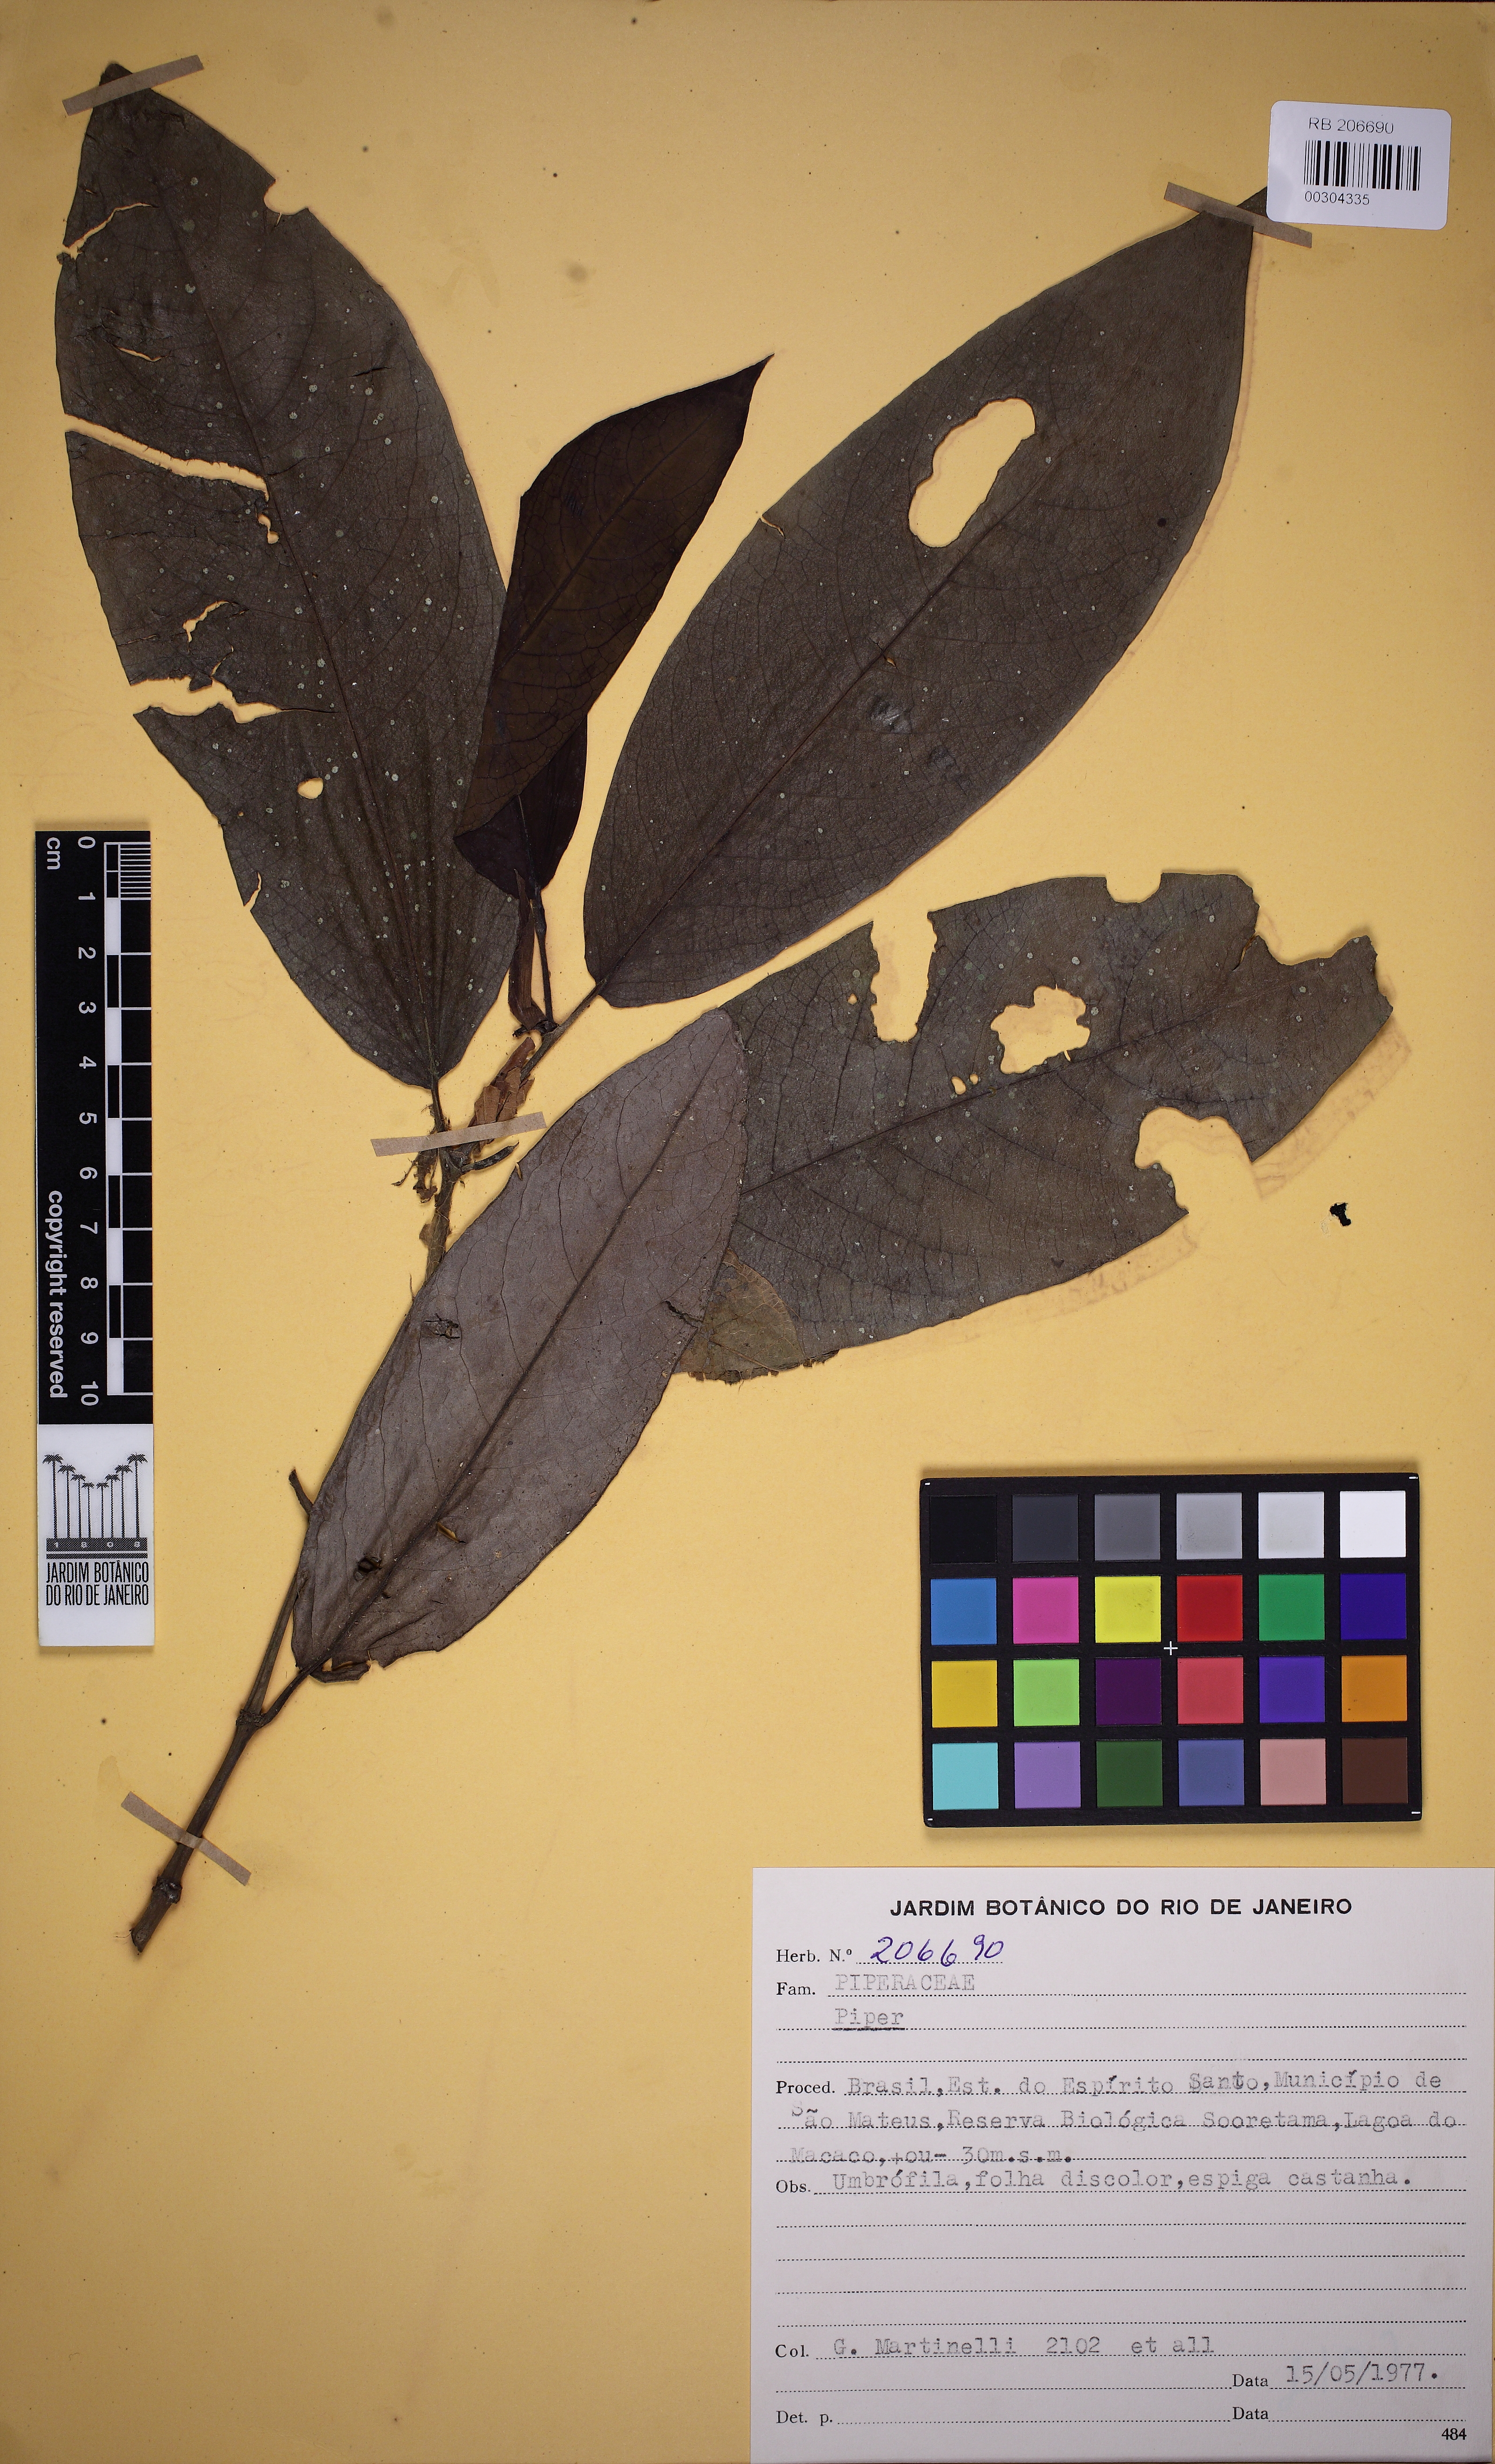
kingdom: Plantae
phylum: Tracheophyta
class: Magnoliopsida
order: Piperales
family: Piperaceae
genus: Peperomia
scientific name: Peperomia
